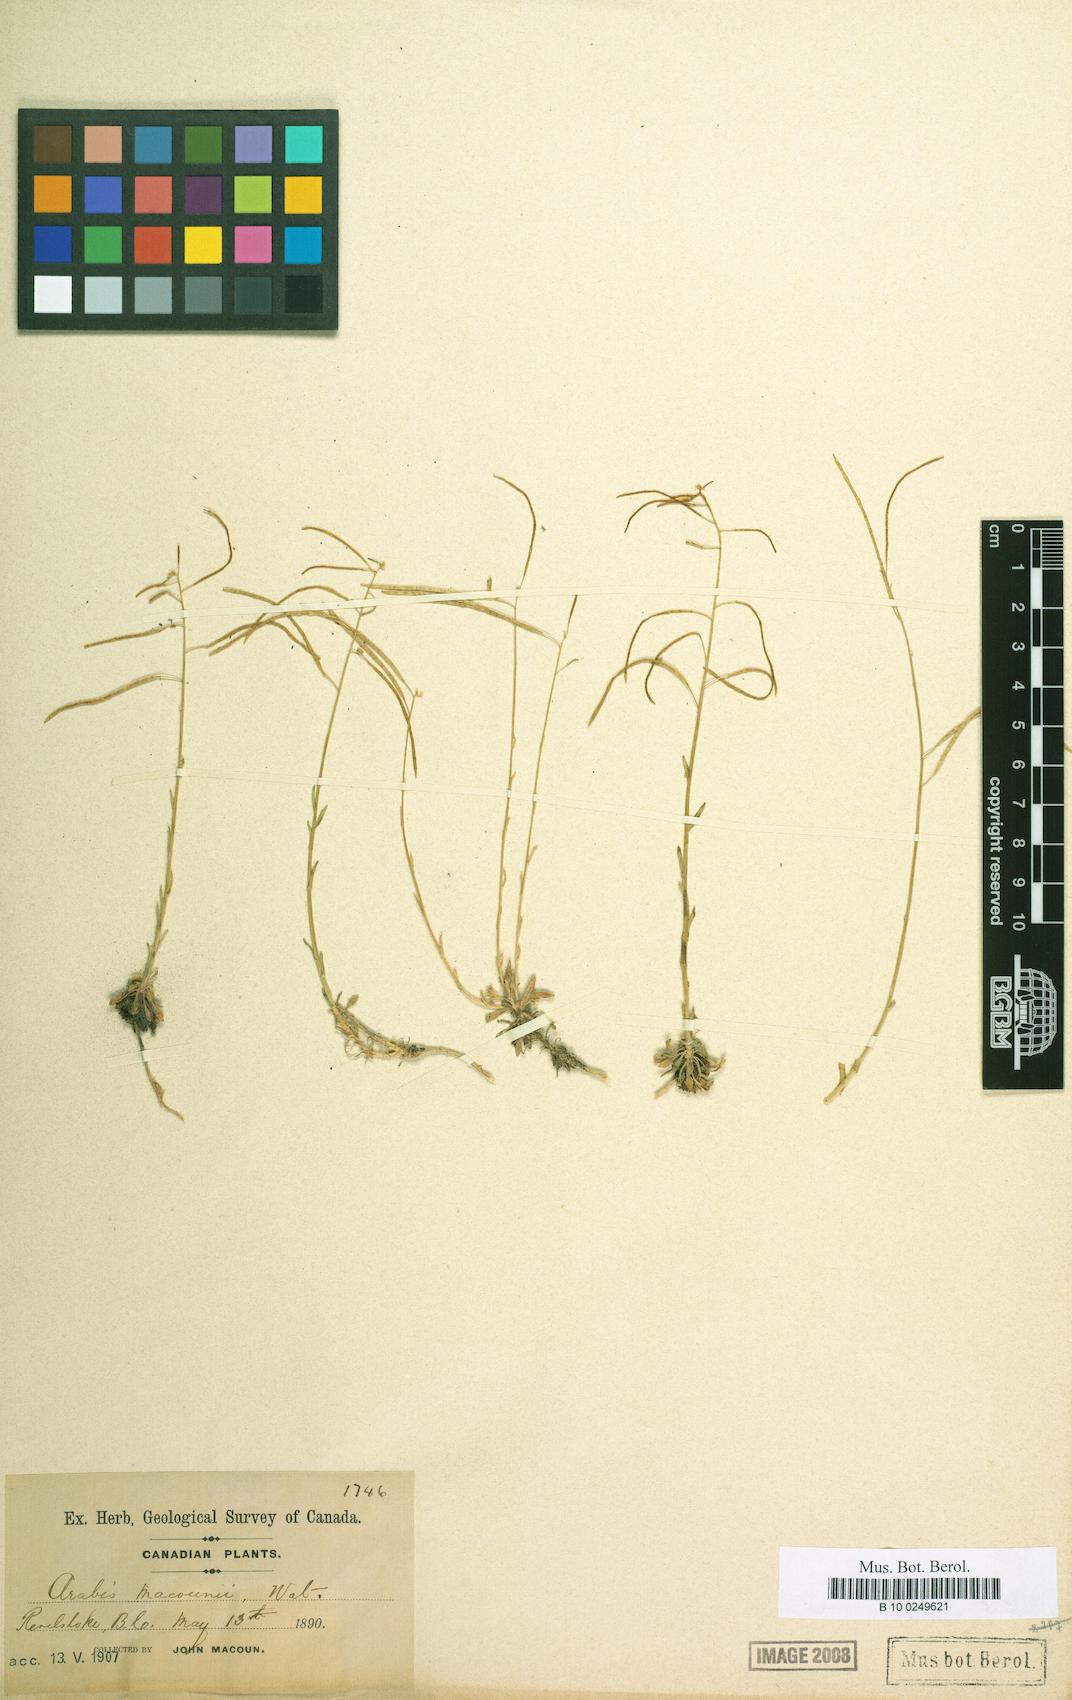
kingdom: Plantae
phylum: Tracheophyta
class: Magnoliopsida
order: Brassicales
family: Brassicaceae
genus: Boechera
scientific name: Boechera macounii
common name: Macoun's rockcress
